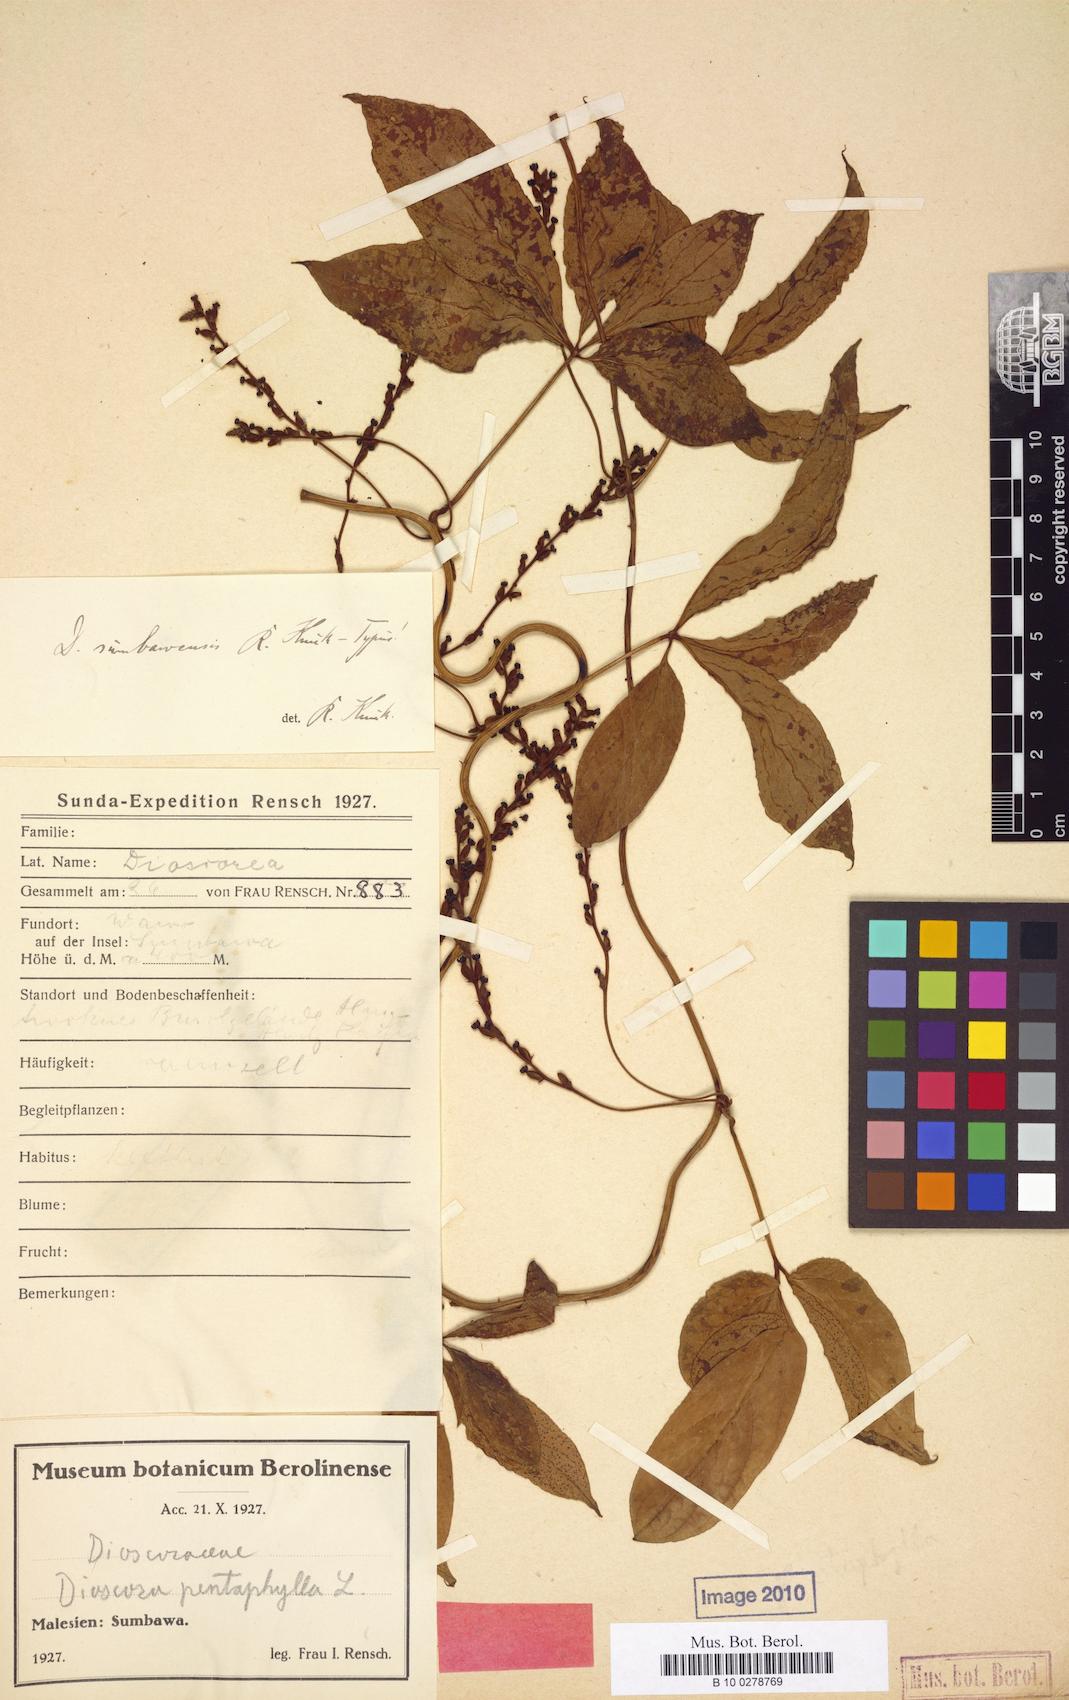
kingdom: Plantae
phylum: Tracheophyta
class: Liliopsida
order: Dioscoreales
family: Dioscoreaceae
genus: Dioscorea
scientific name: Dioscorea pentaphylla
